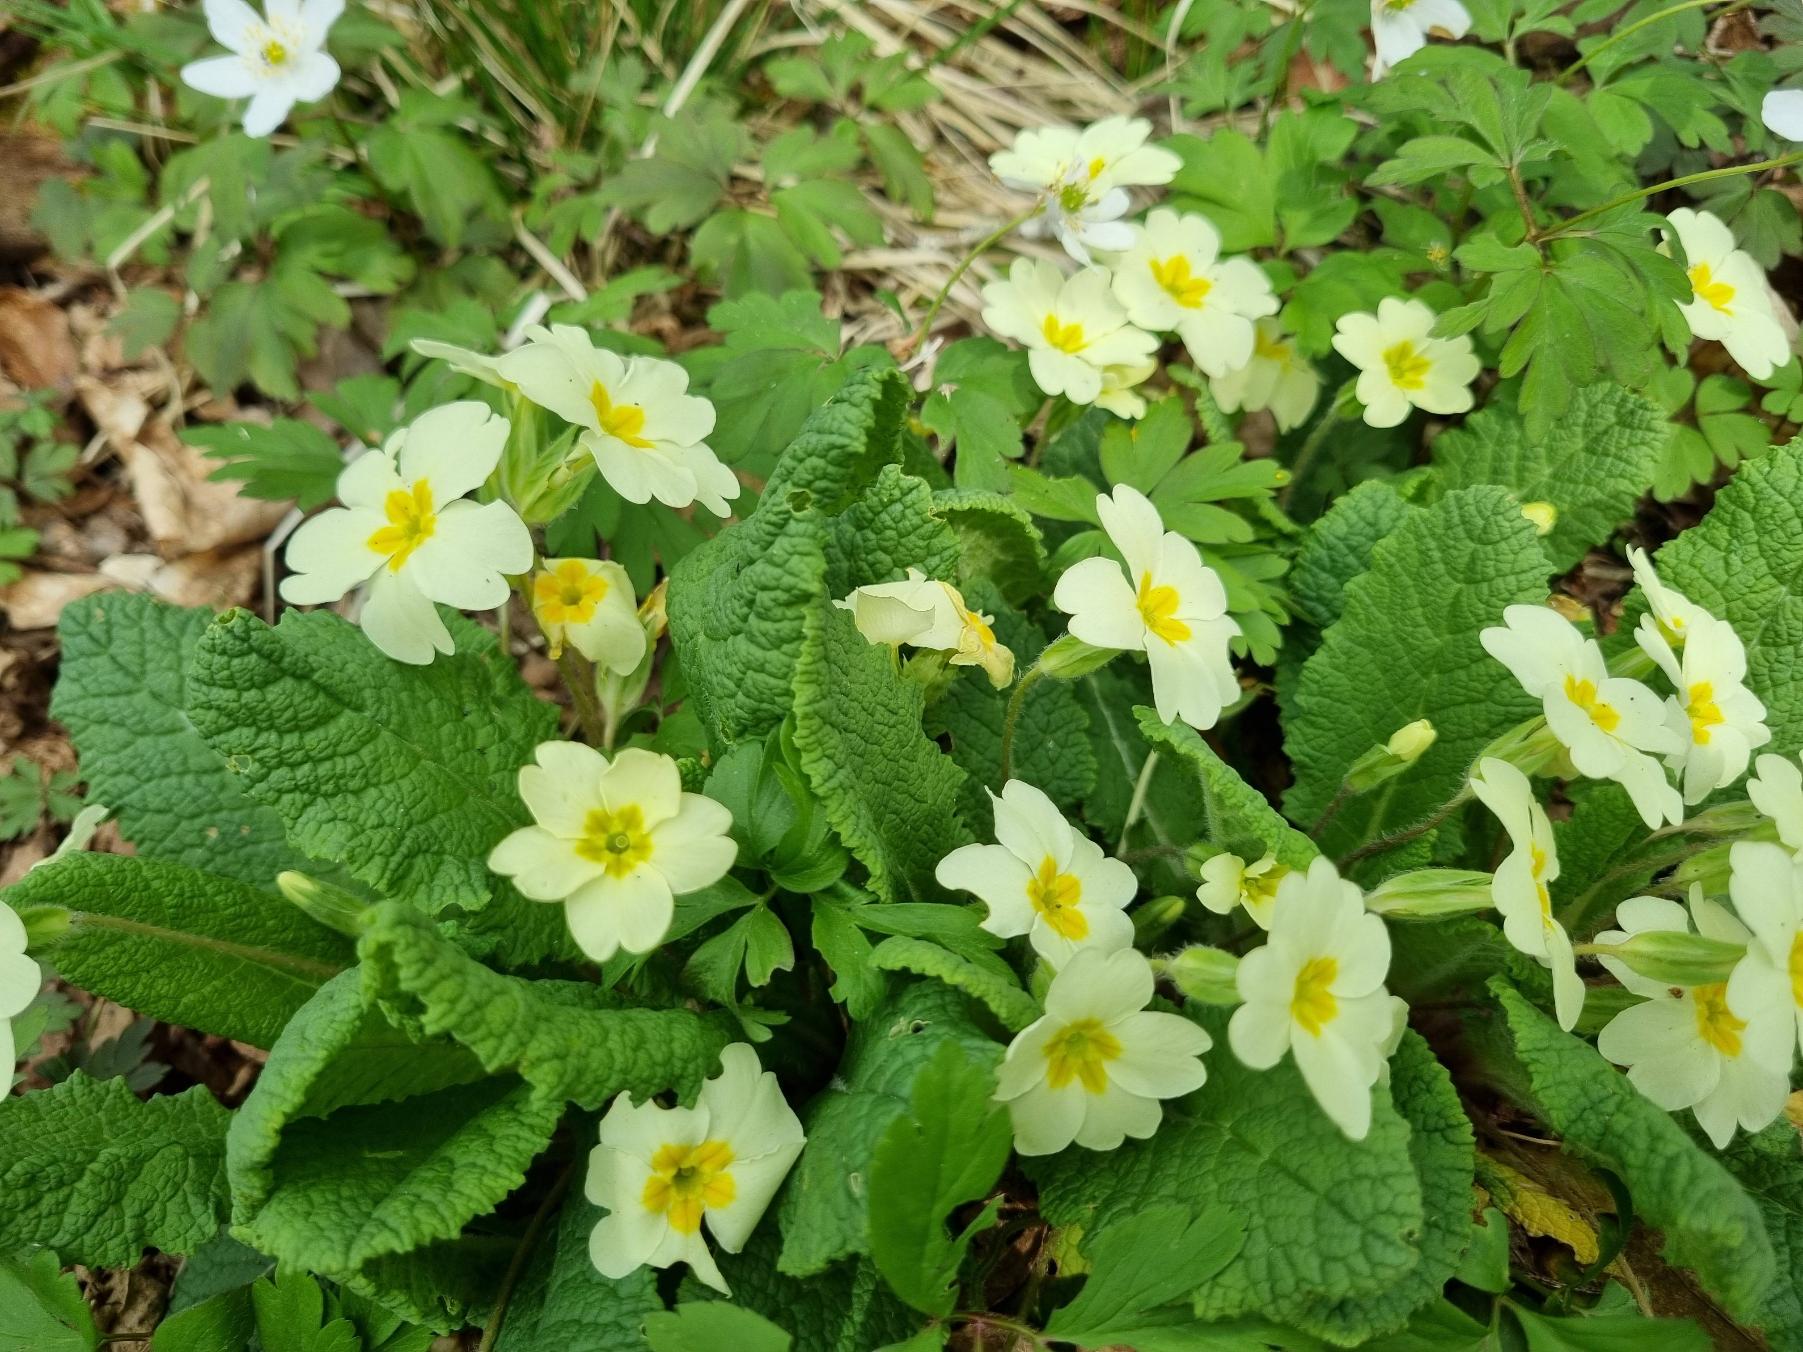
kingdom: Plantae
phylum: Tracheophyta
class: Magnoliopsida
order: Ericales
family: Primulaceae
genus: Primula
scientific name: Primula vulgaris
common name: Storblomstret kodriver
